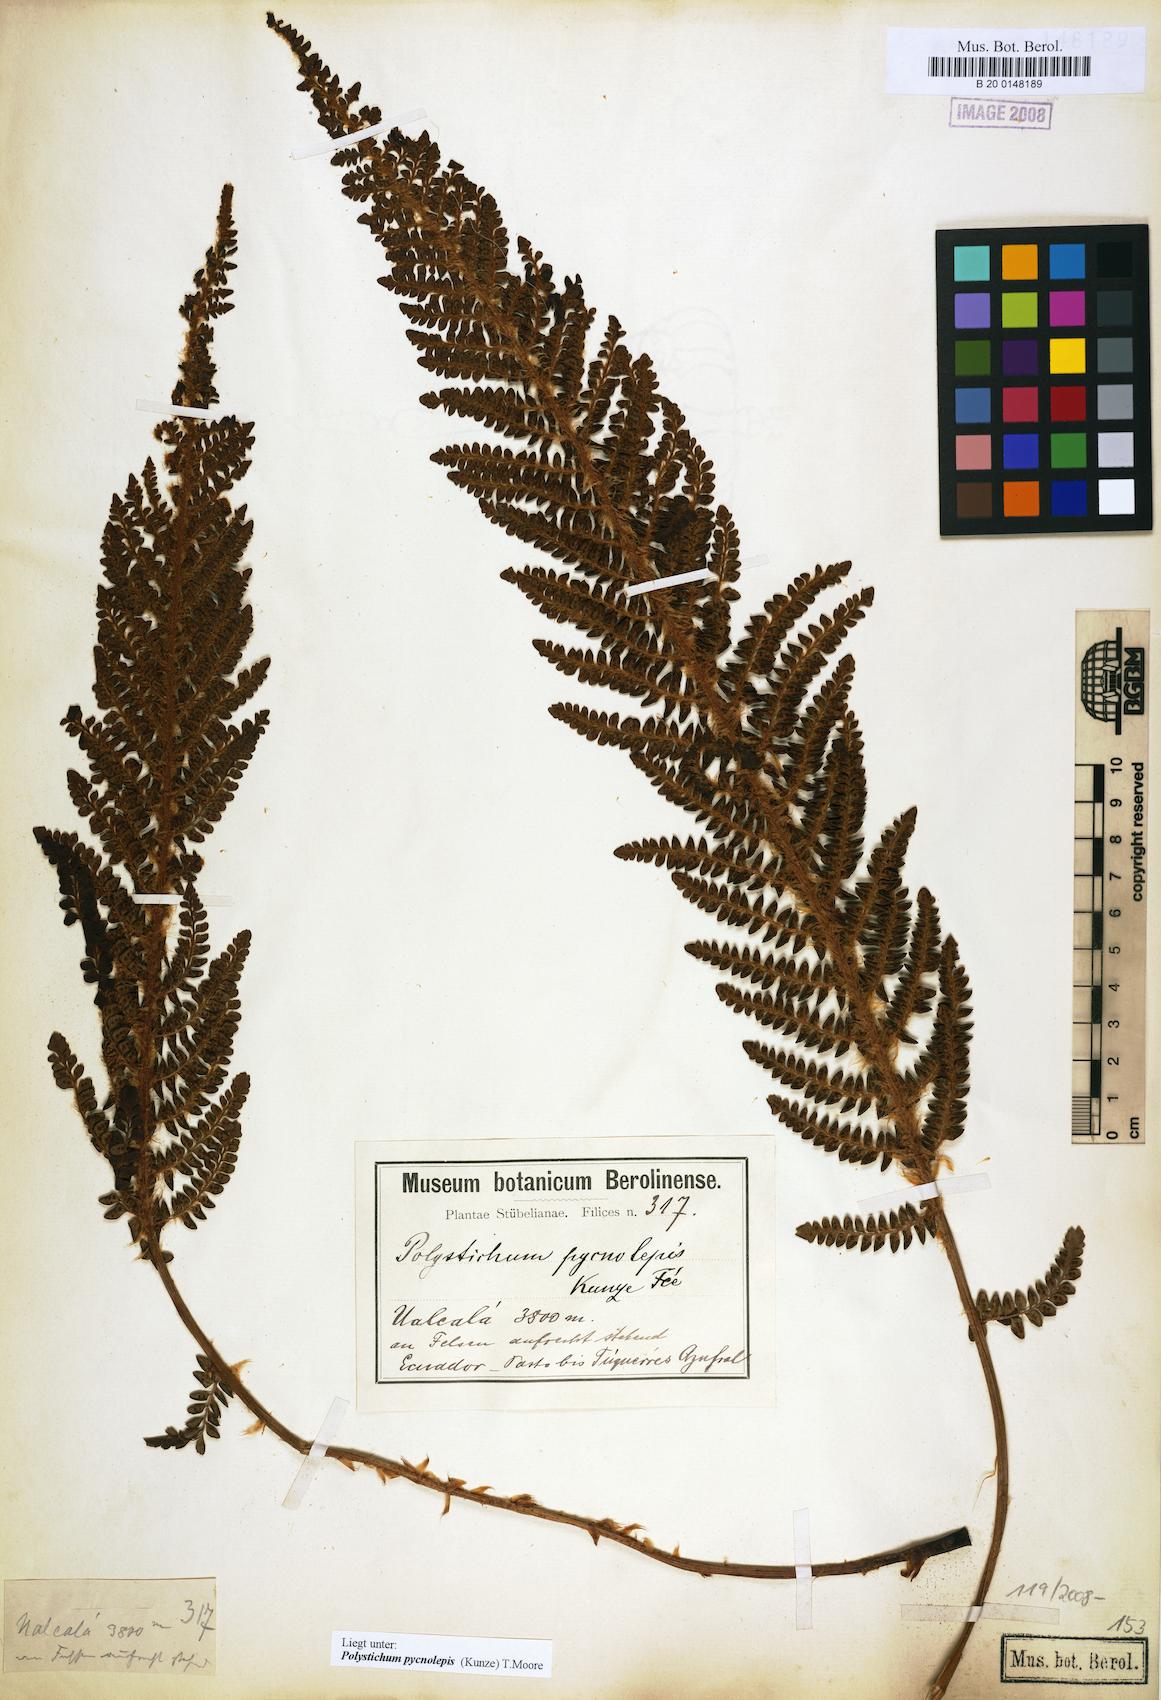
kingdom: Plantae
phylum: Tracheophyta
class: Polypodiopsida
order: Polypodiales
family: Dryopteridaceae
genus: Polystichum
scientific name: Polystichum pycnolepis
